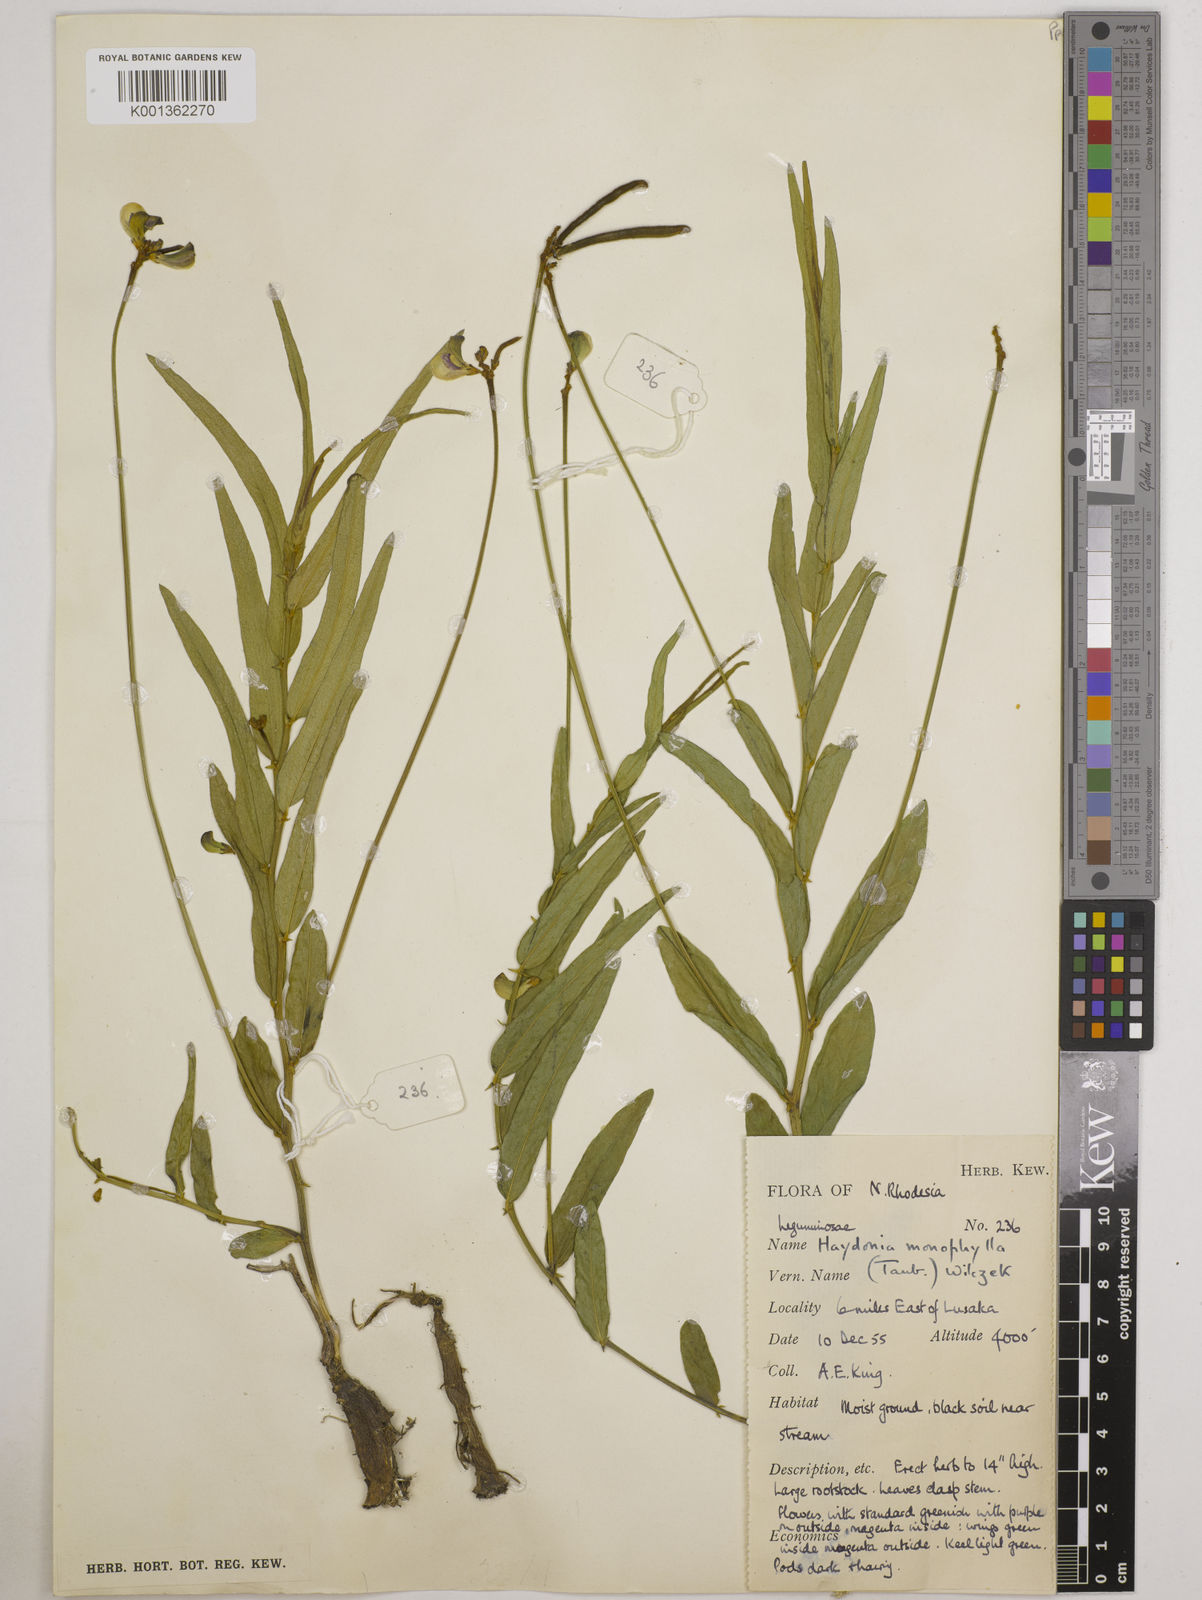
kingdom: Plantae
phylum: Tracheophyta
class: Magnoliopsida
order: Fabales
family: Fabaceae
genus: Vigna
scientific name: Vigna monophylla
